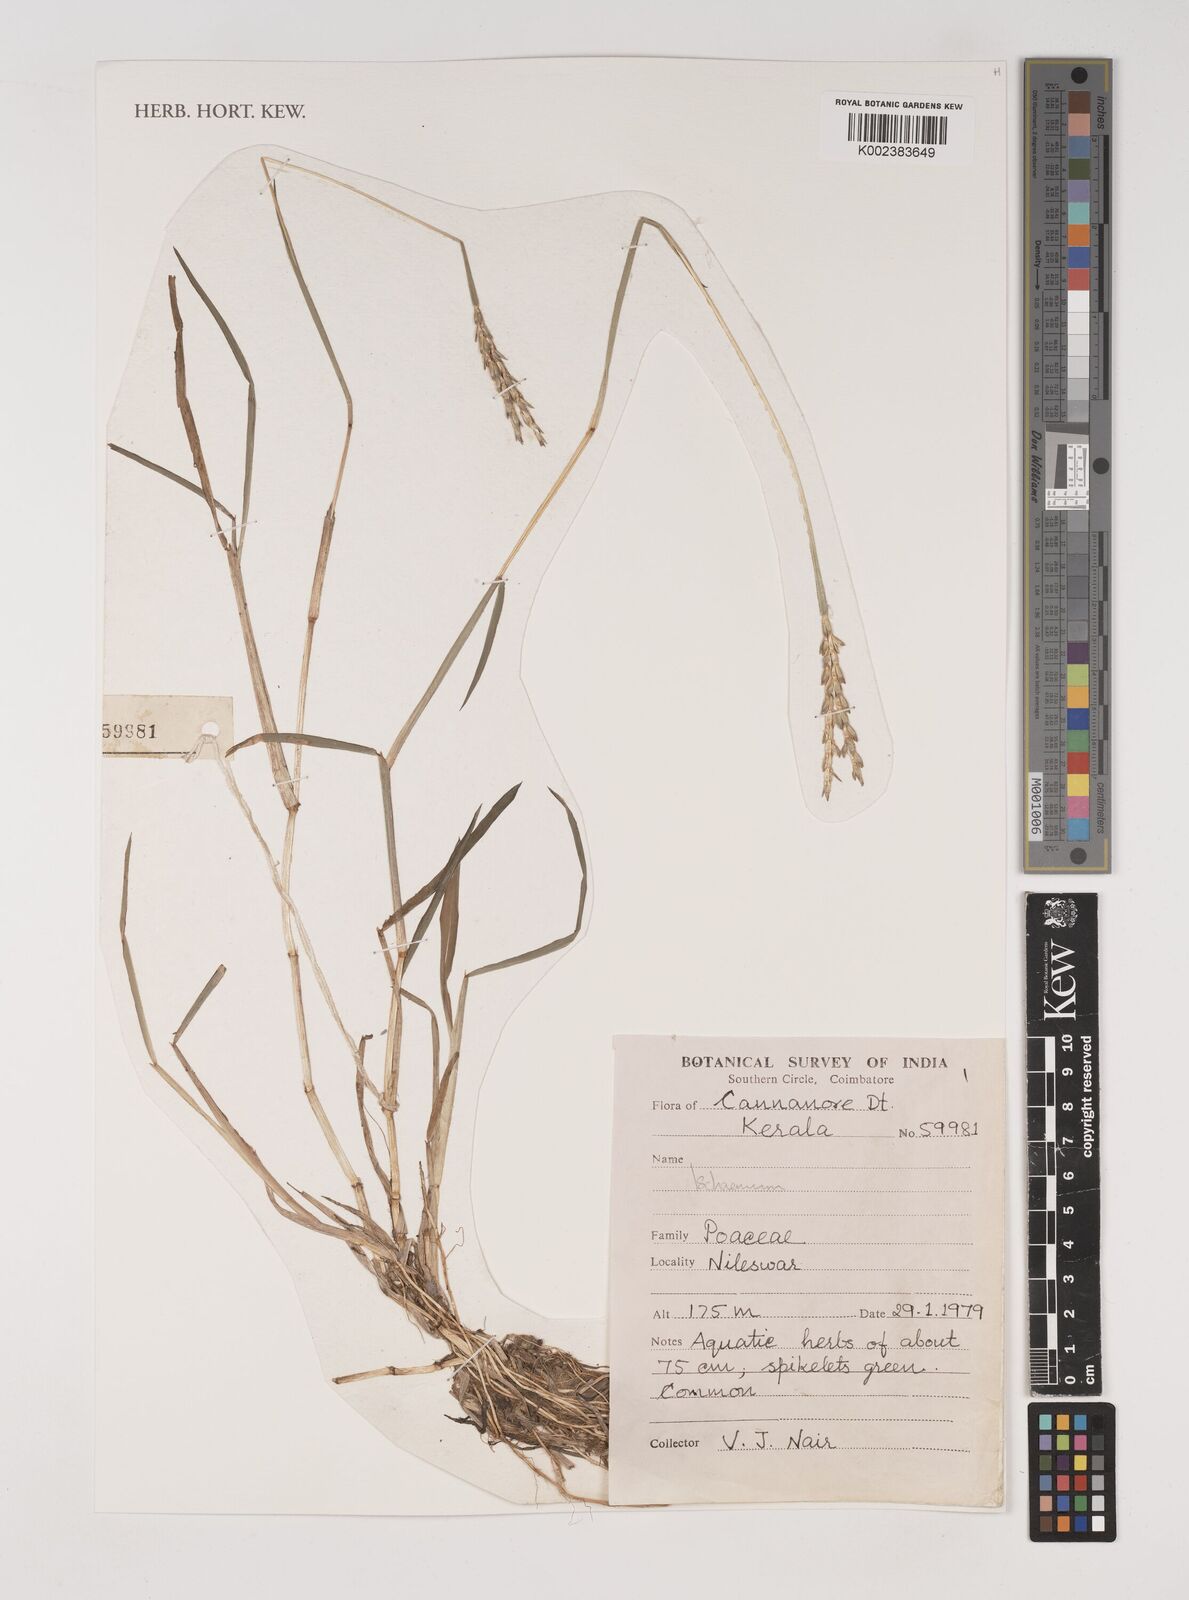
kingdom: Plantae
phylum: Tracheophyta
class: Liliopsida
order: Poales
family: Poaceae
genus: Ischaemum
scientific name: Ischaemum
